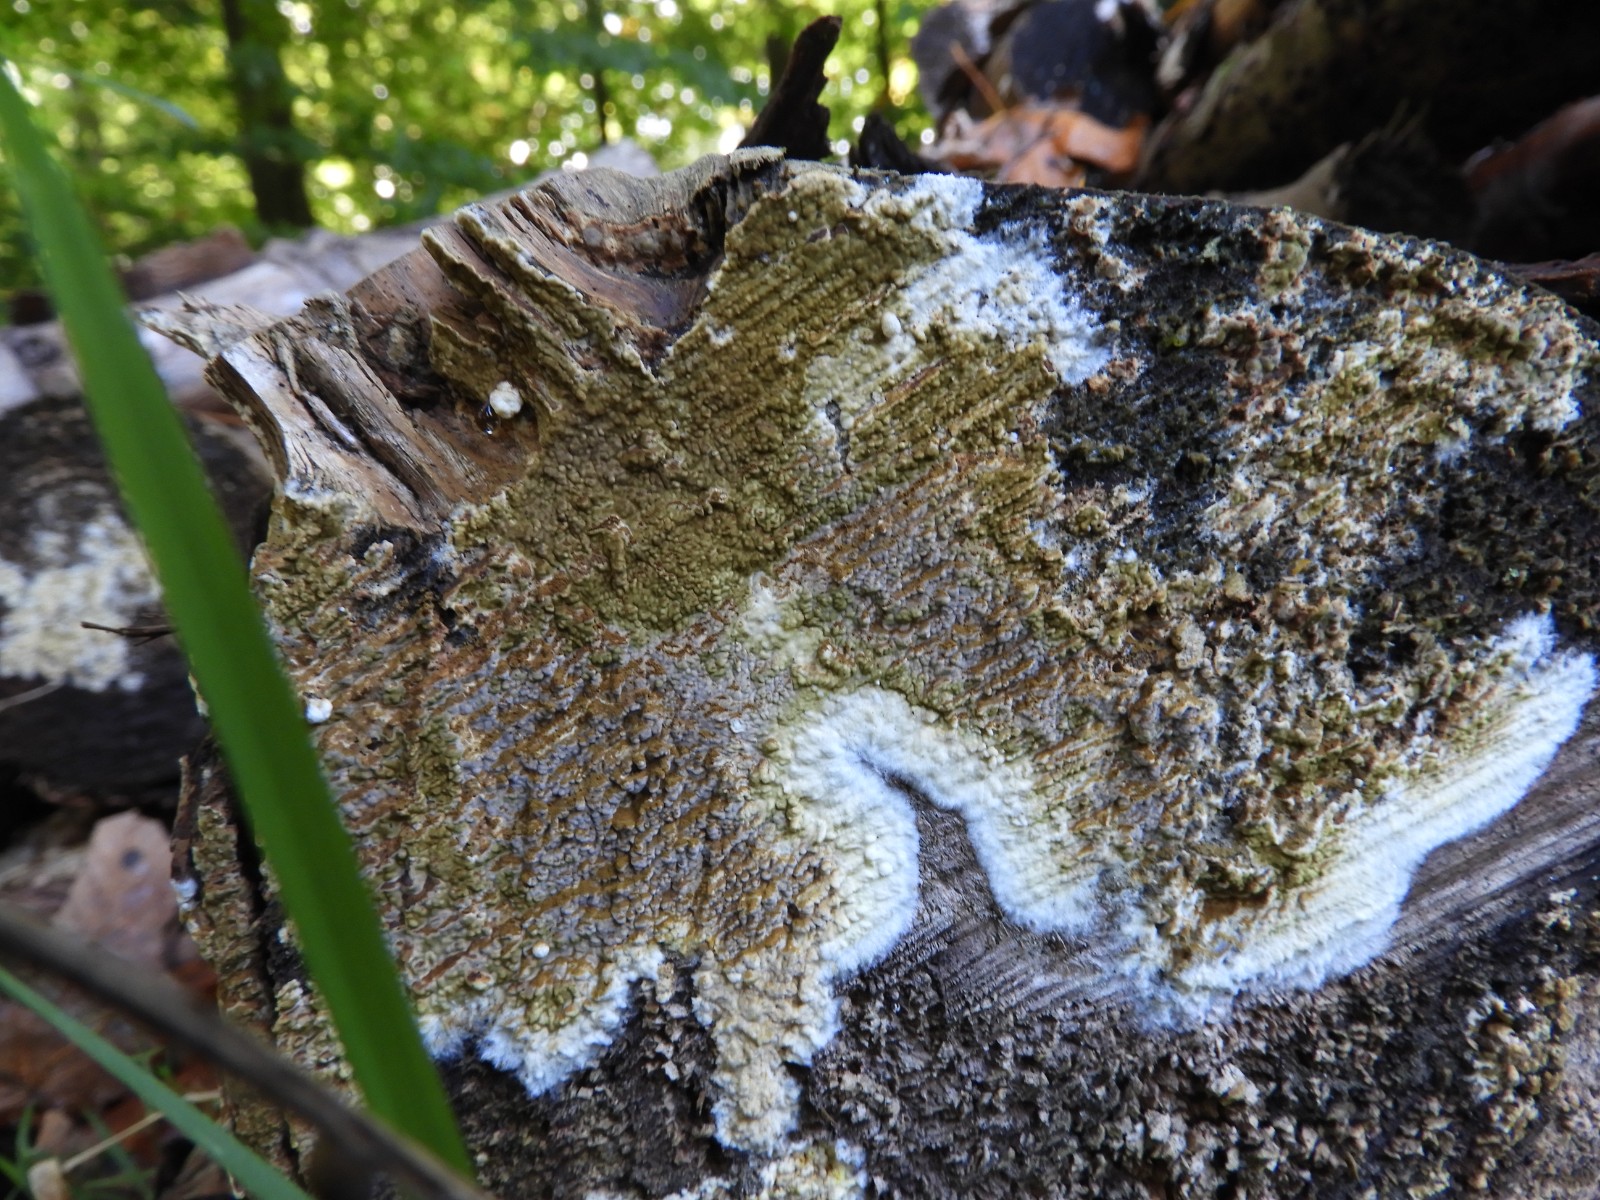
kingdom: Fungi
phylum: Basidiomycota
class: Agaricomycetes
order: Boletales
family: Coniophoraceae
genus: Coniophora
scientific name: Coniophora puteana
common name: gul tømmersvamp
